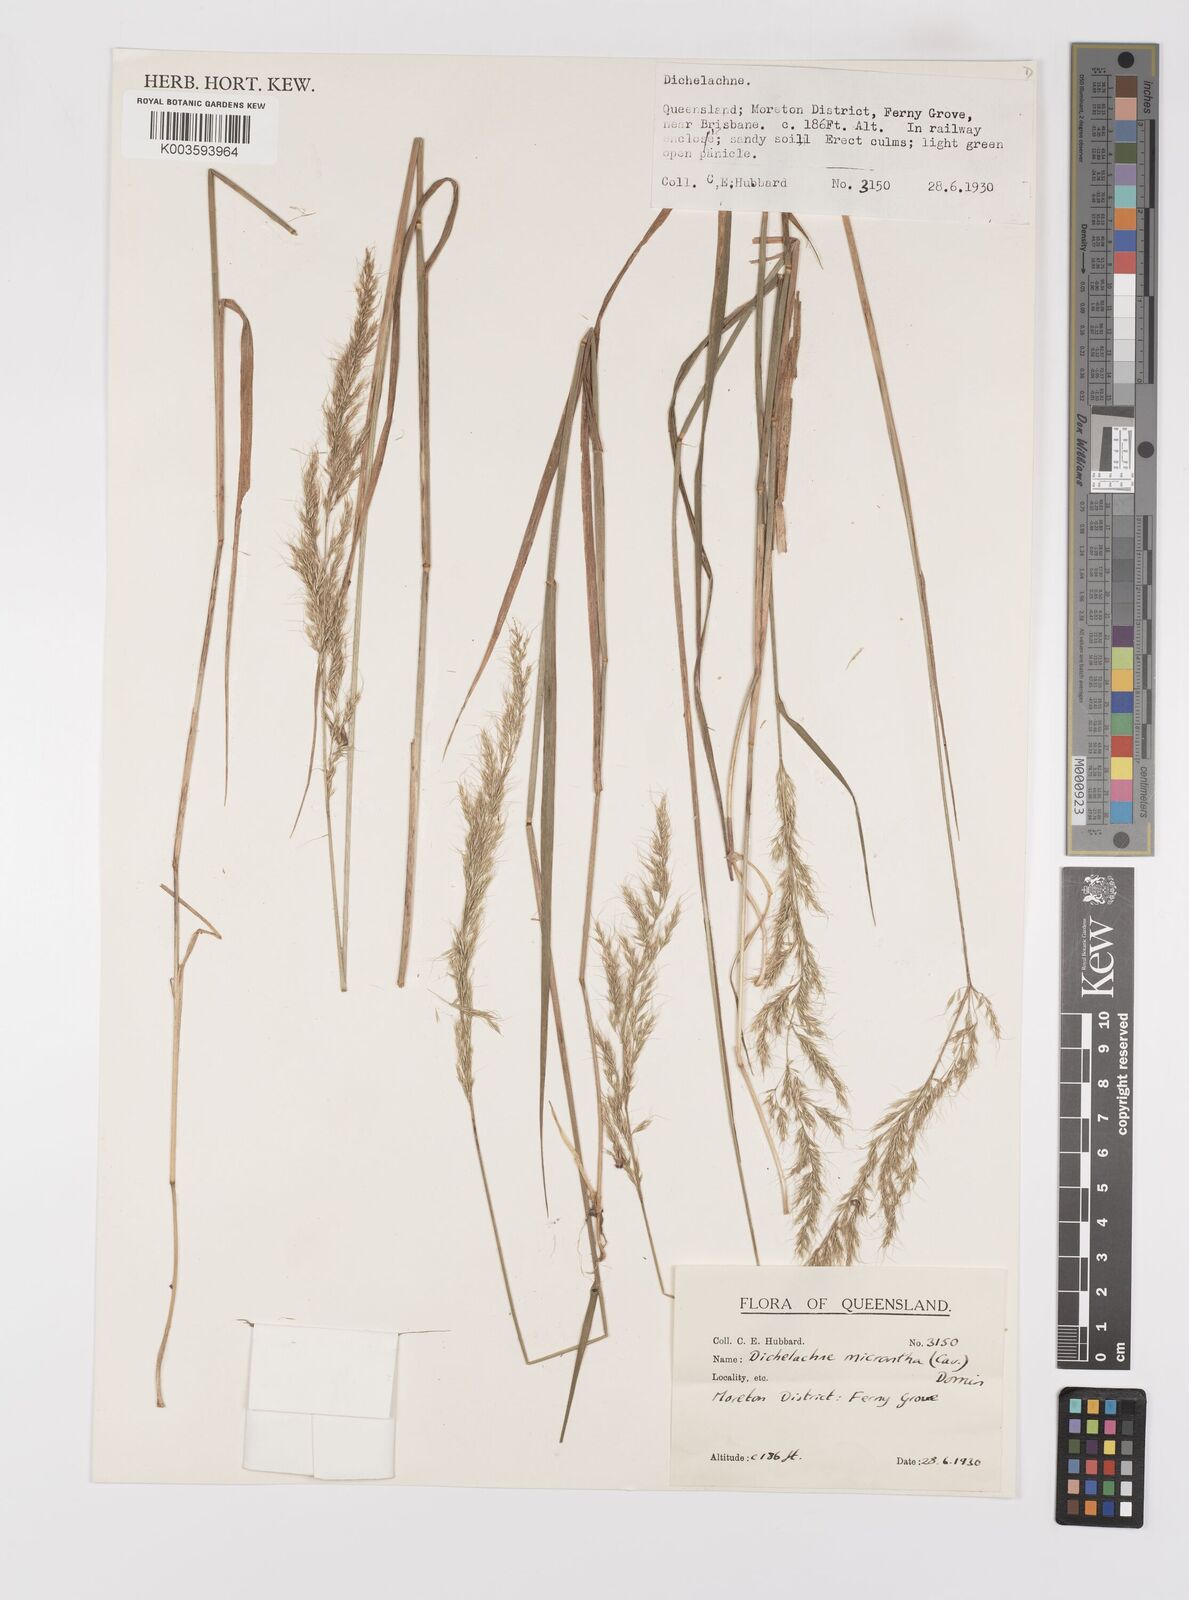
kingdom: Plantae
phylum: Tracheophyta
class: Liliopsida
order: Poales
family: Poaceae
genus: Dichelachne
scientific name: Dichelachne micrantha
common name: Plumegrass
